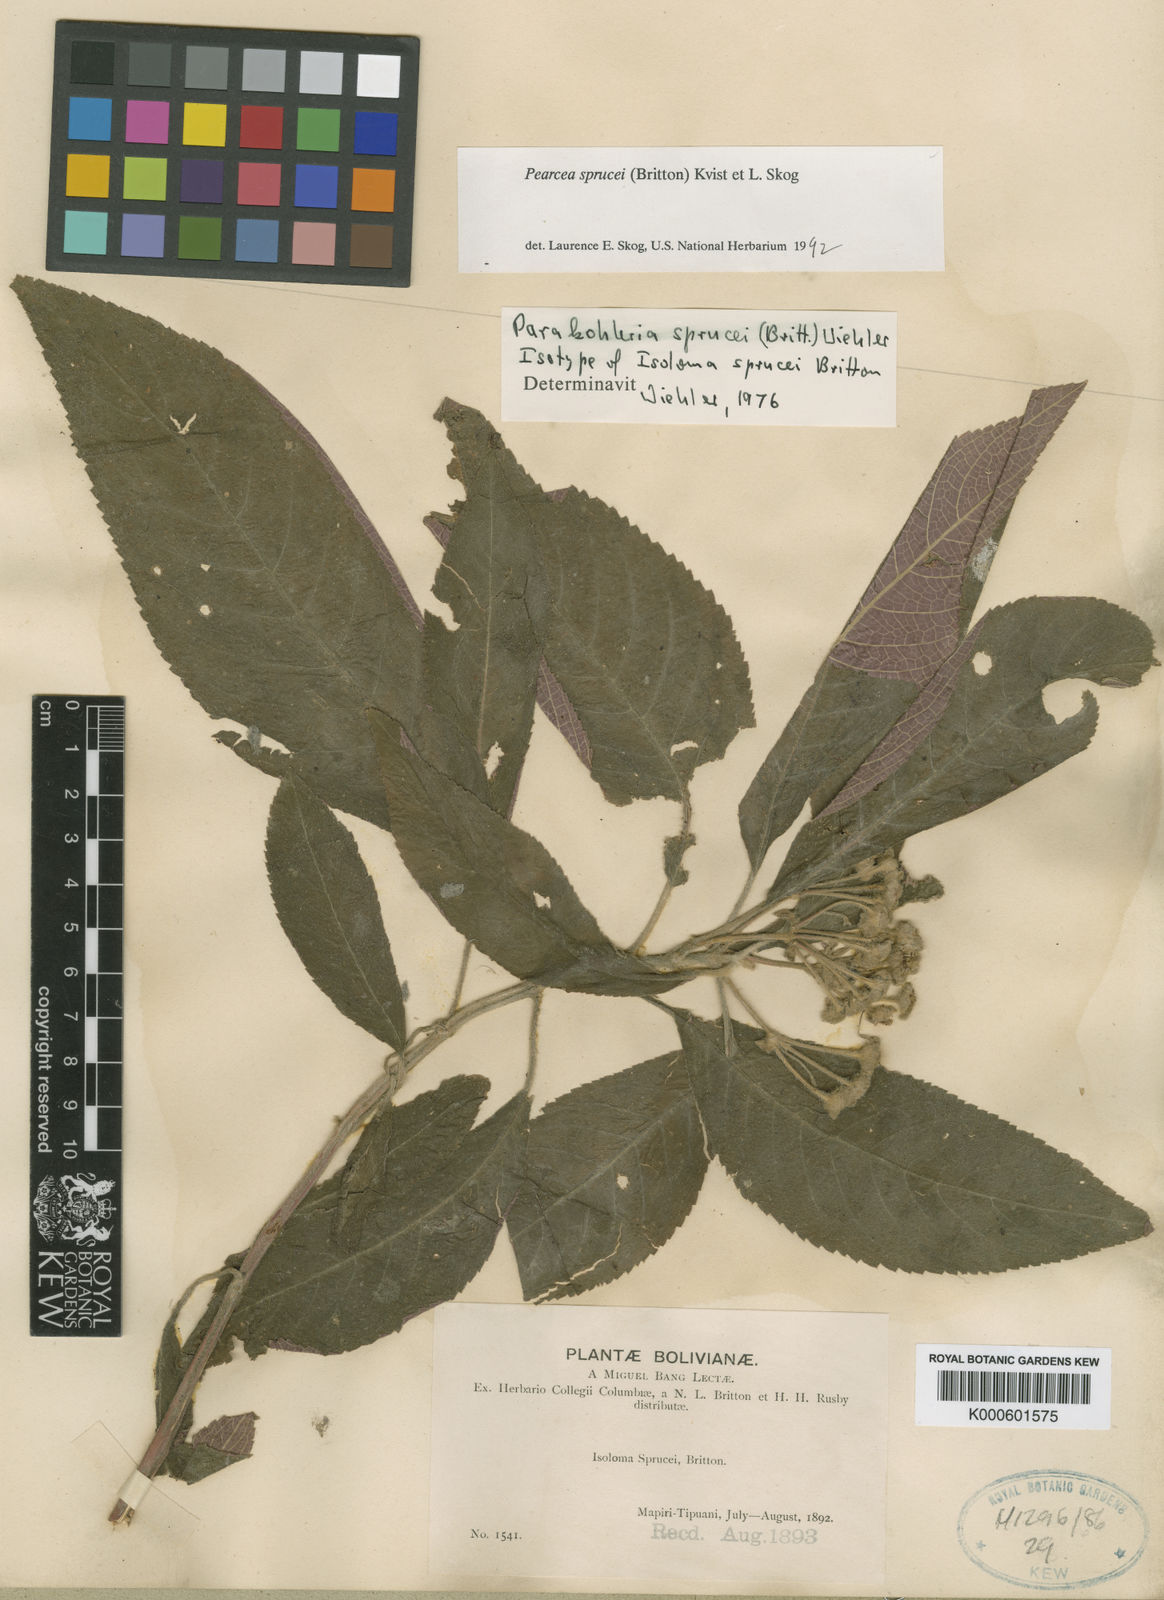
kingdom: Plantae
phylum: Tracheophyta
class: Magnoliopsida
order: Lamiales
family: Gesneriaceae
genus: Pearcea
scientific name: Pearcea sprucei
